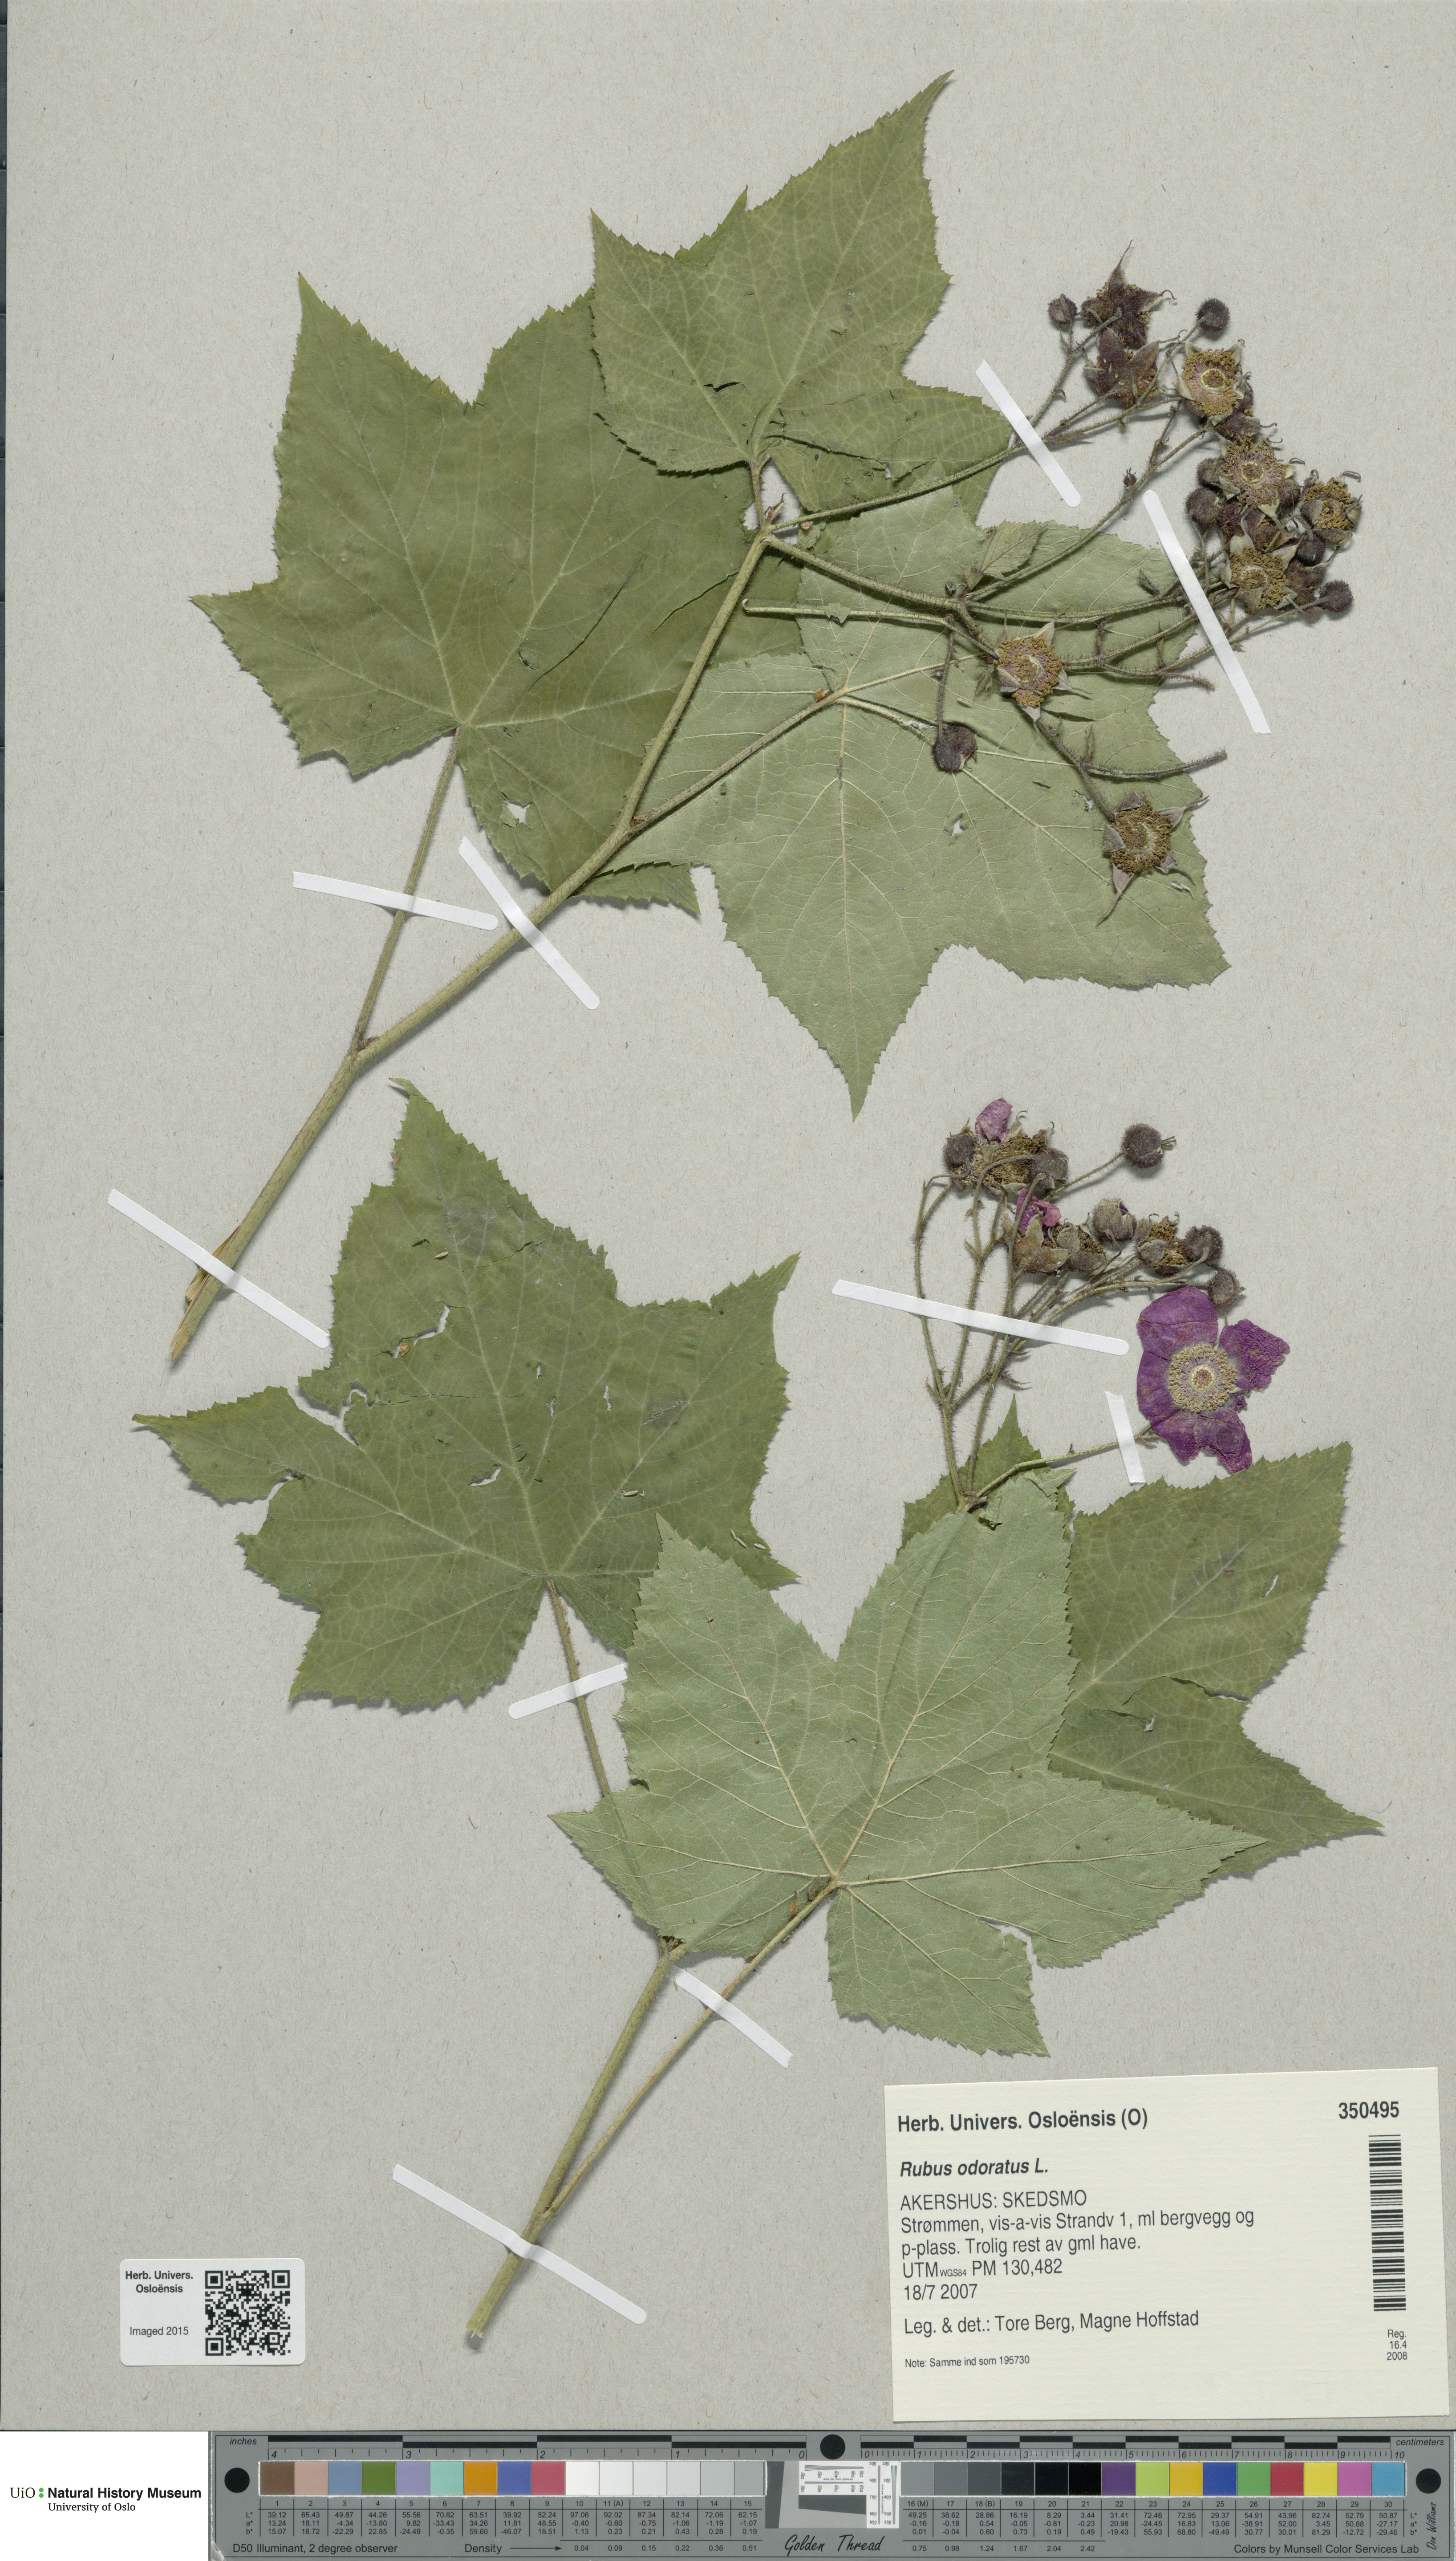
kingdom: Plantae
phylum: Tracheophyta
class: Magnoliopsida
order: Rosales
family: Rosaceae
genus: Rubus
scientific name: Rubus odoratus
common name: Purple-flowered raspberry
